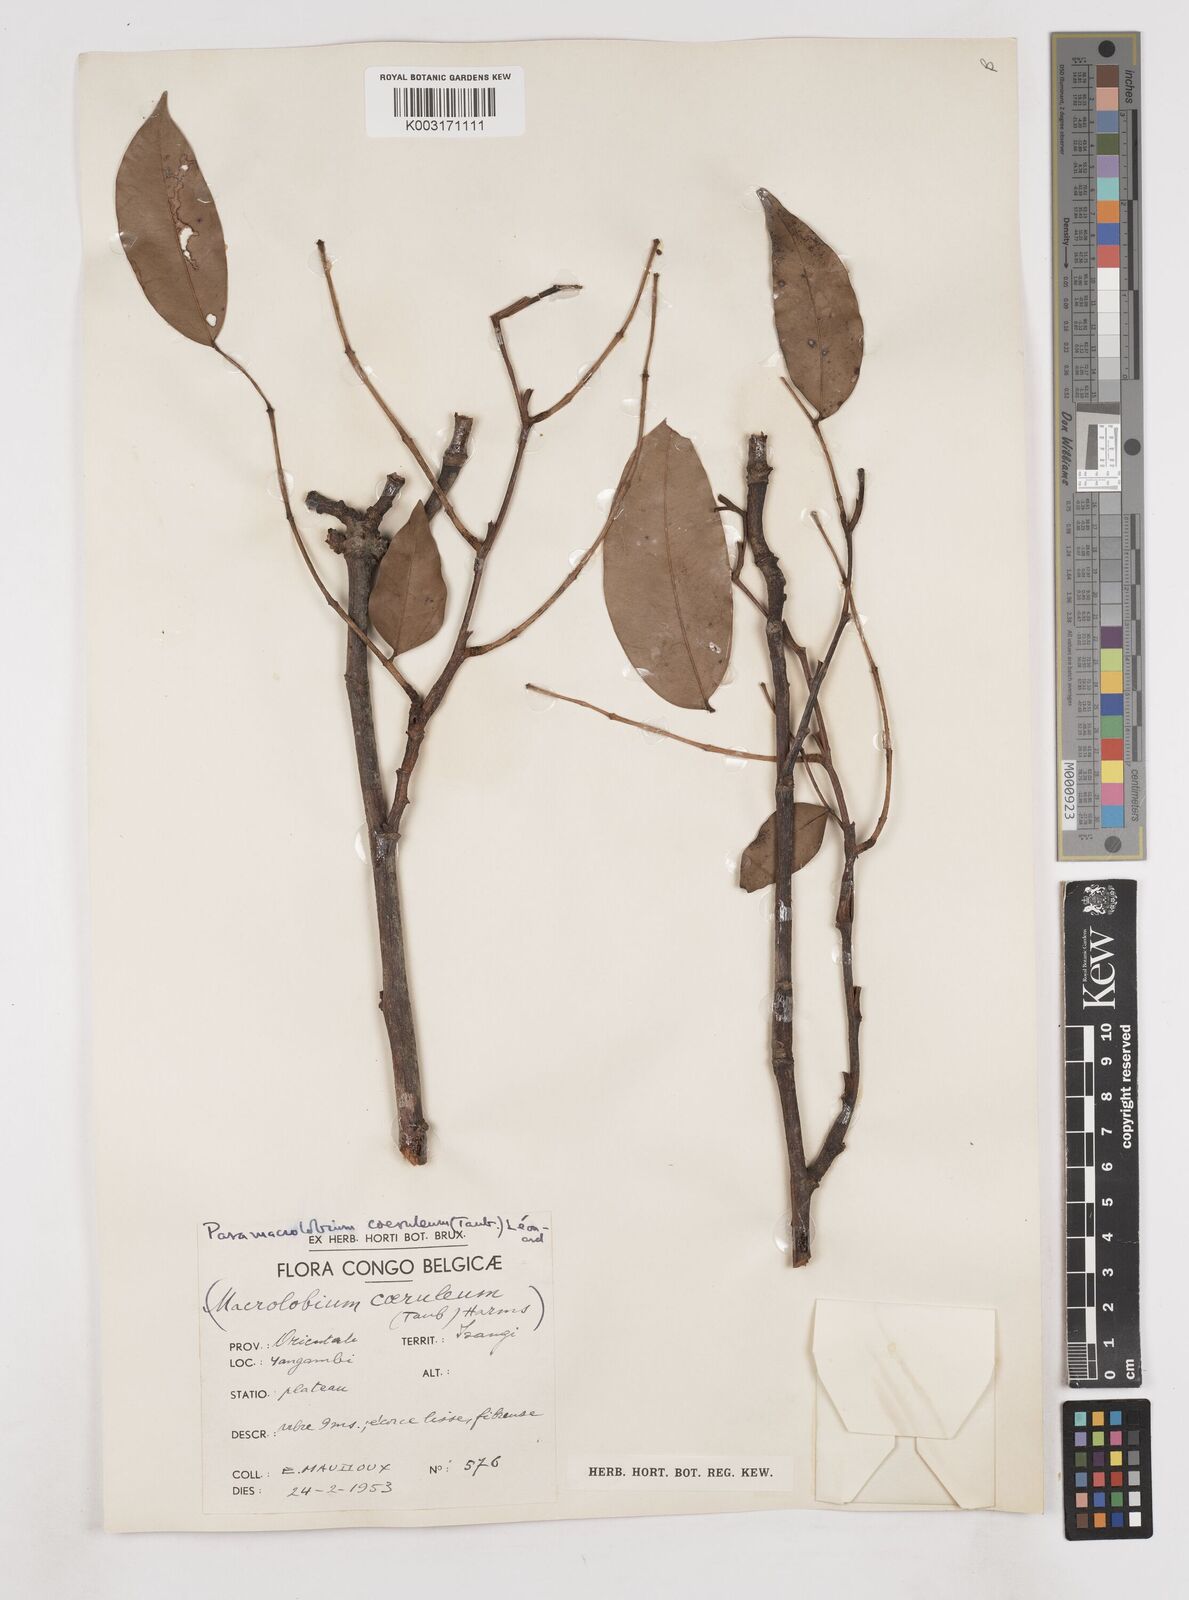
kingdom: Plantae
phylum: Tracheophyta
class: Magnoliopsida
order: Fabales
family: Fabaceae
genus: Paramacrolobium
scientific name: Paramacrolobium coeruleum
